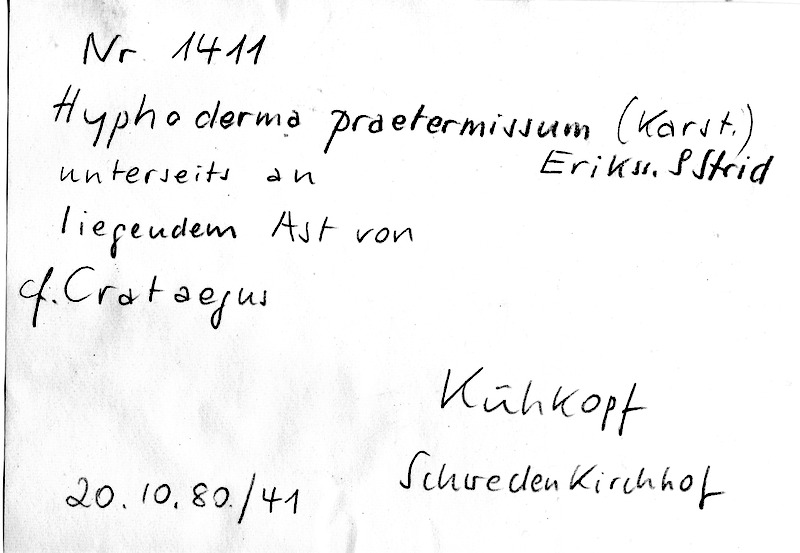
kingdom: Plantae
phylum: Tracheophyta
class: Magnoliopsida
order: Rosales
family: Rosaceae
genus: Crataegus
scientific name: Crataegus
